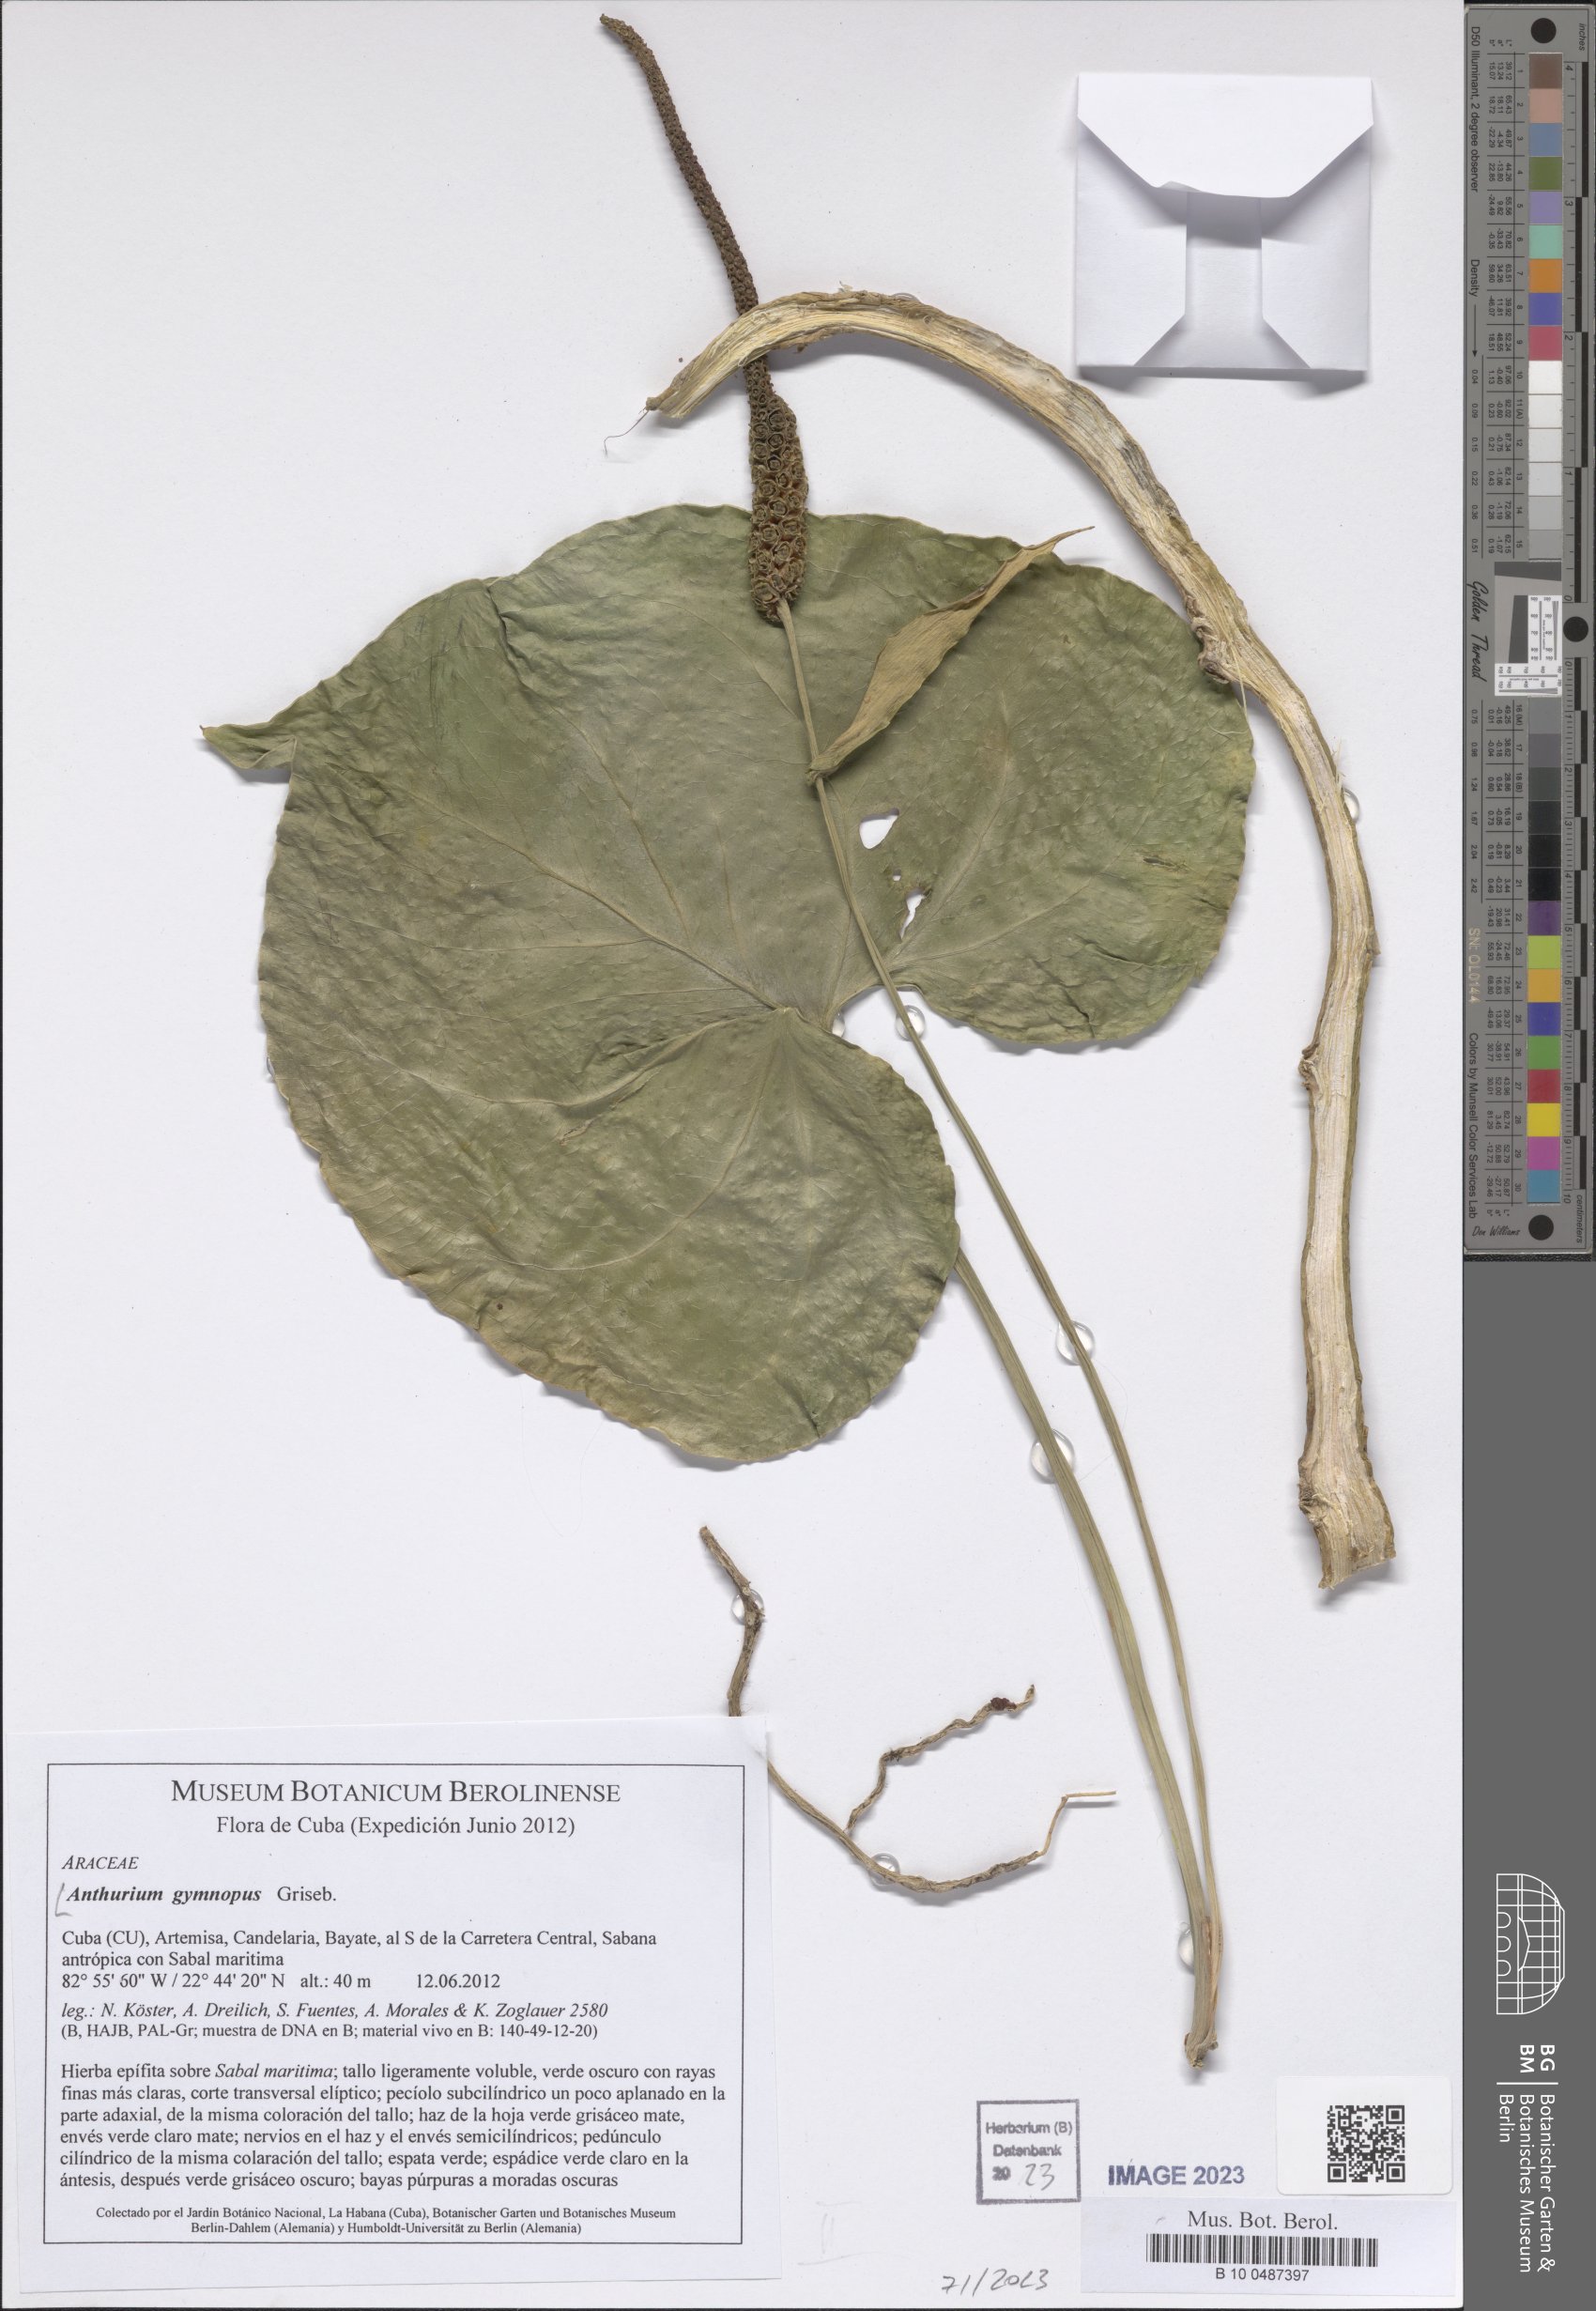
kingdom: Plantae
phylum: Tracheophyta
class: Liliopsida
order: Alismatales
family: Araceae
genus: Anthurium
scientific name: Anthurium gymnopus
